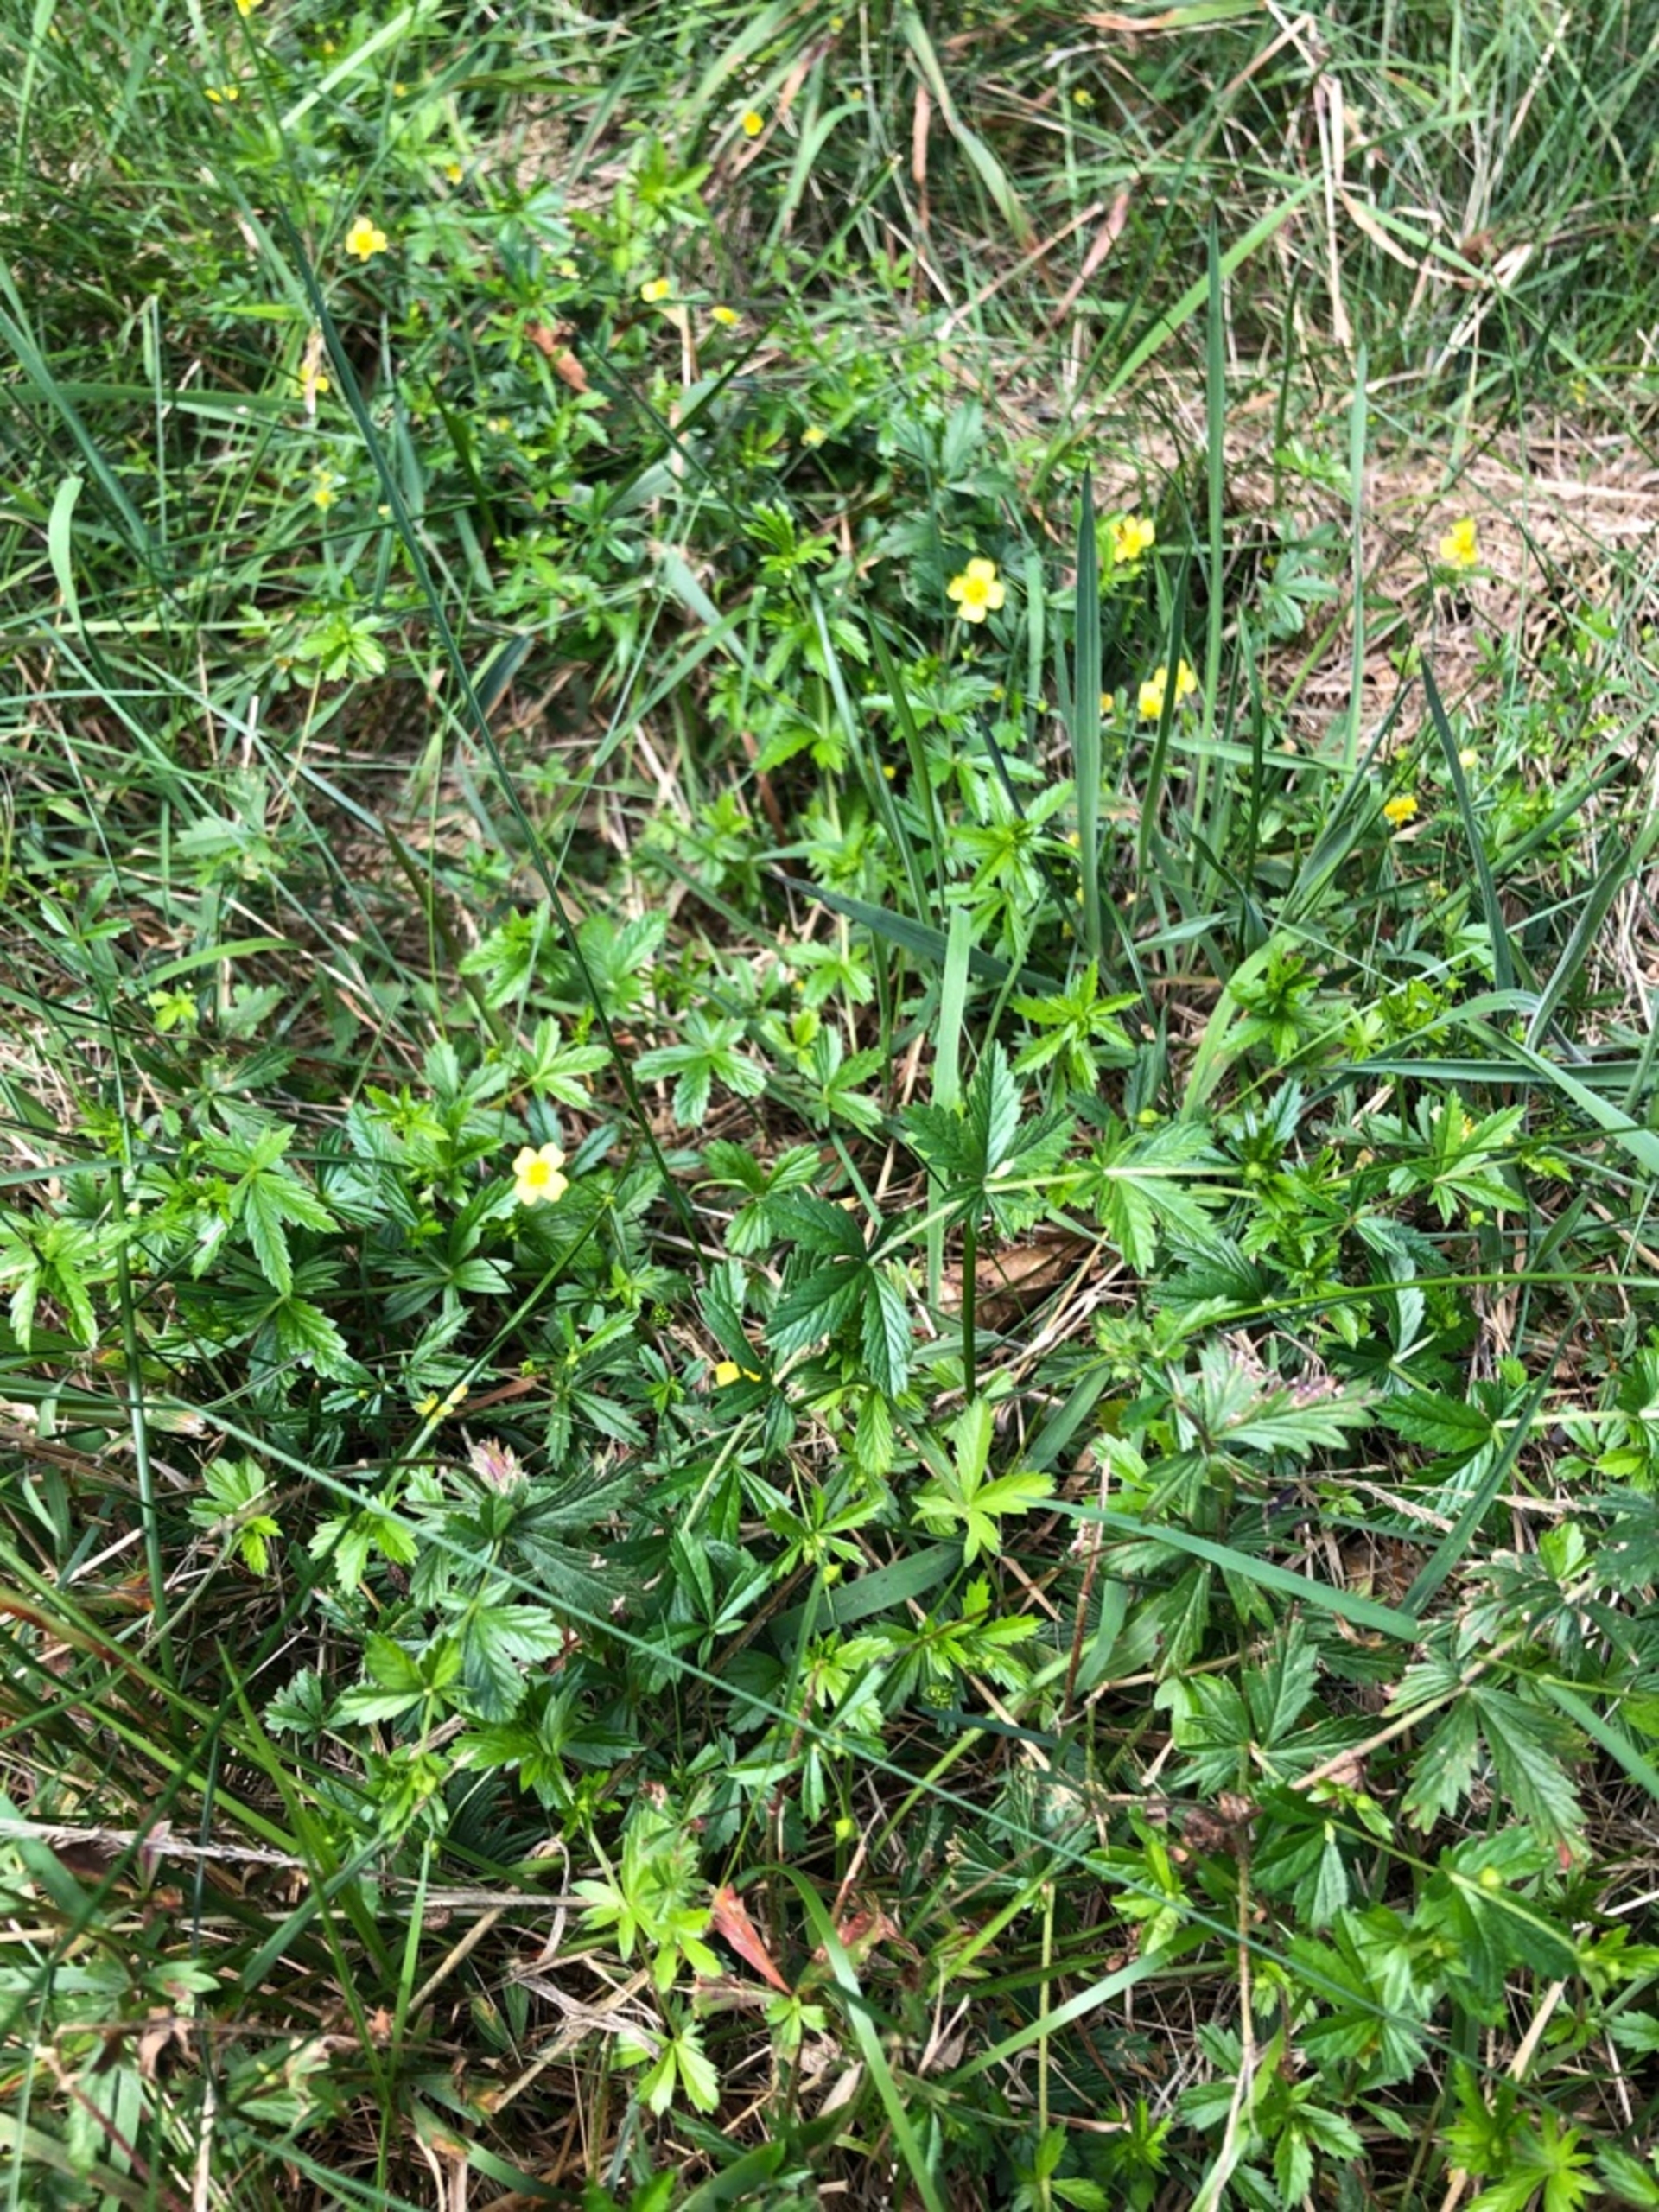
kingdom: Plantae
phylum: Tracheophyta
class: Magnoliopsida
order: Rosales
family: Rosaceae
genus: Potentilla
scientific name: Potentilla erecta
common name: Tormentil
